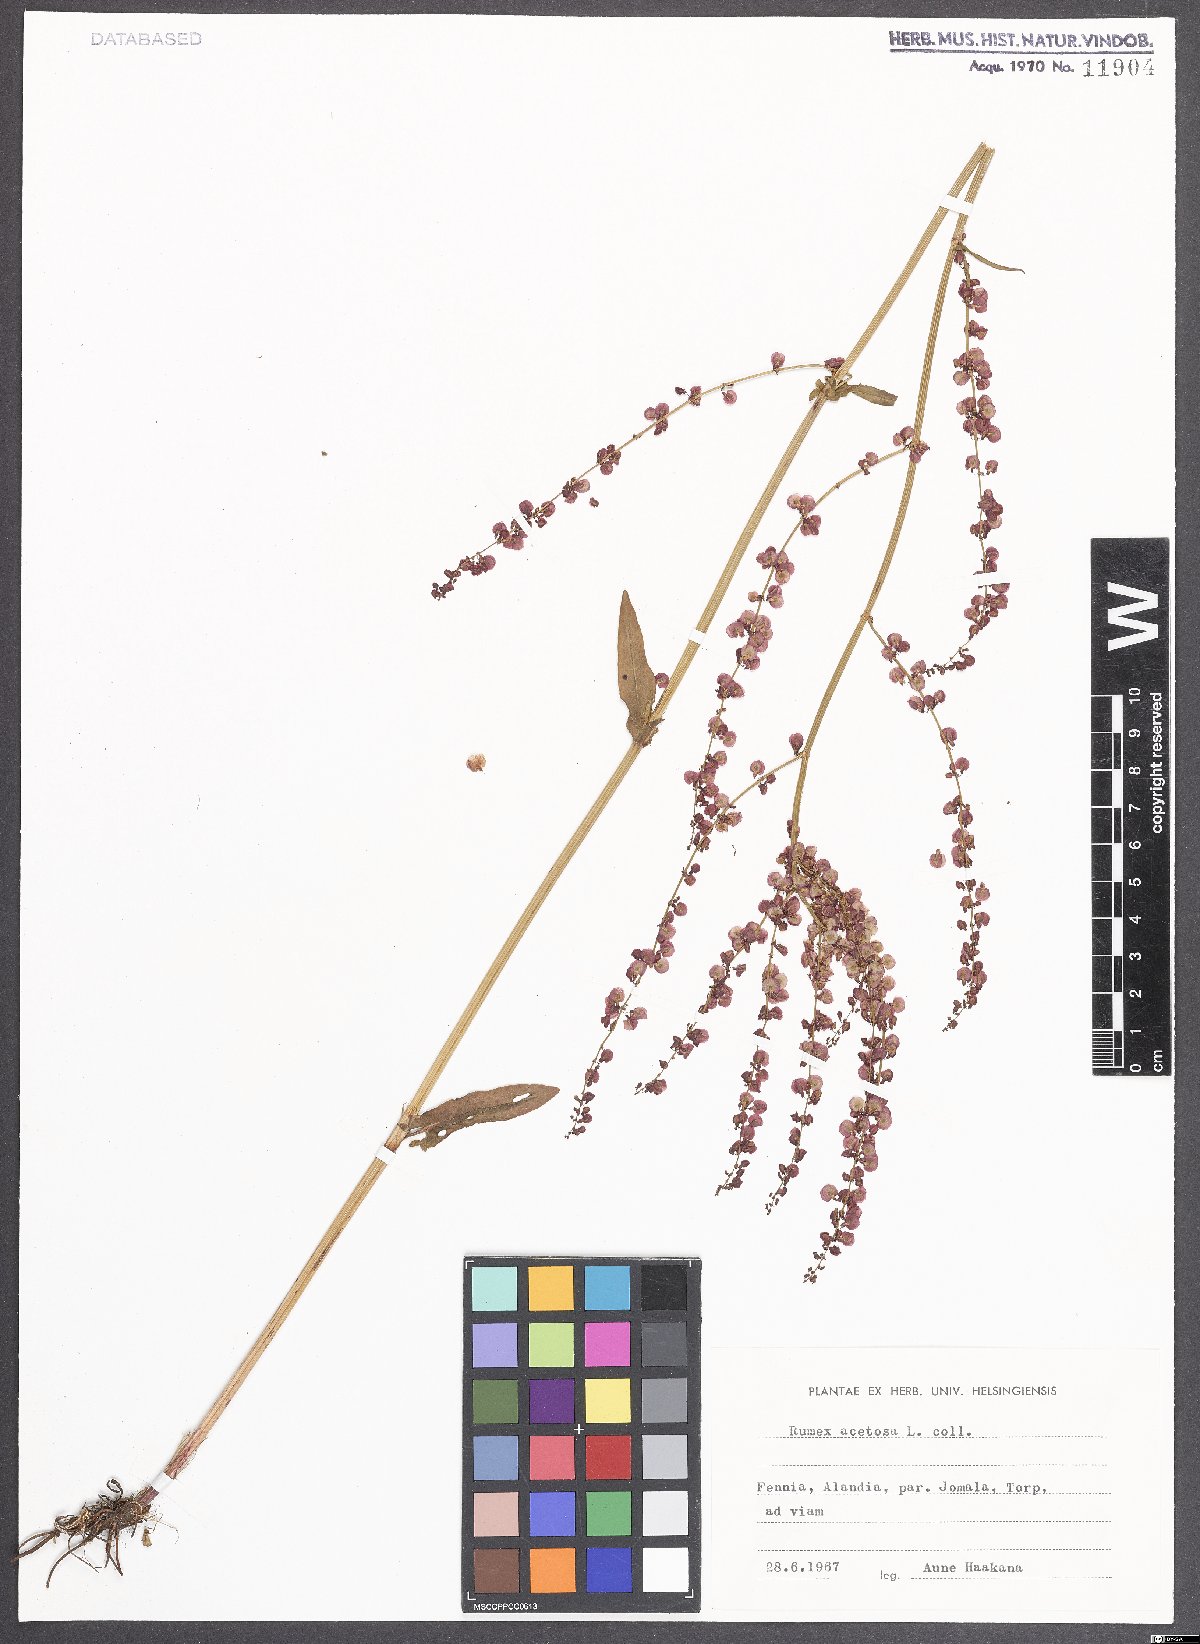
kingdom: Plantae
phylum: Tracheophyta
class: Magnoliopsida
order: Caryophyllales
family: Polygonaceae
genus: Rumex
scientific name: Rumex acetosa
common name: Garden sorrel
